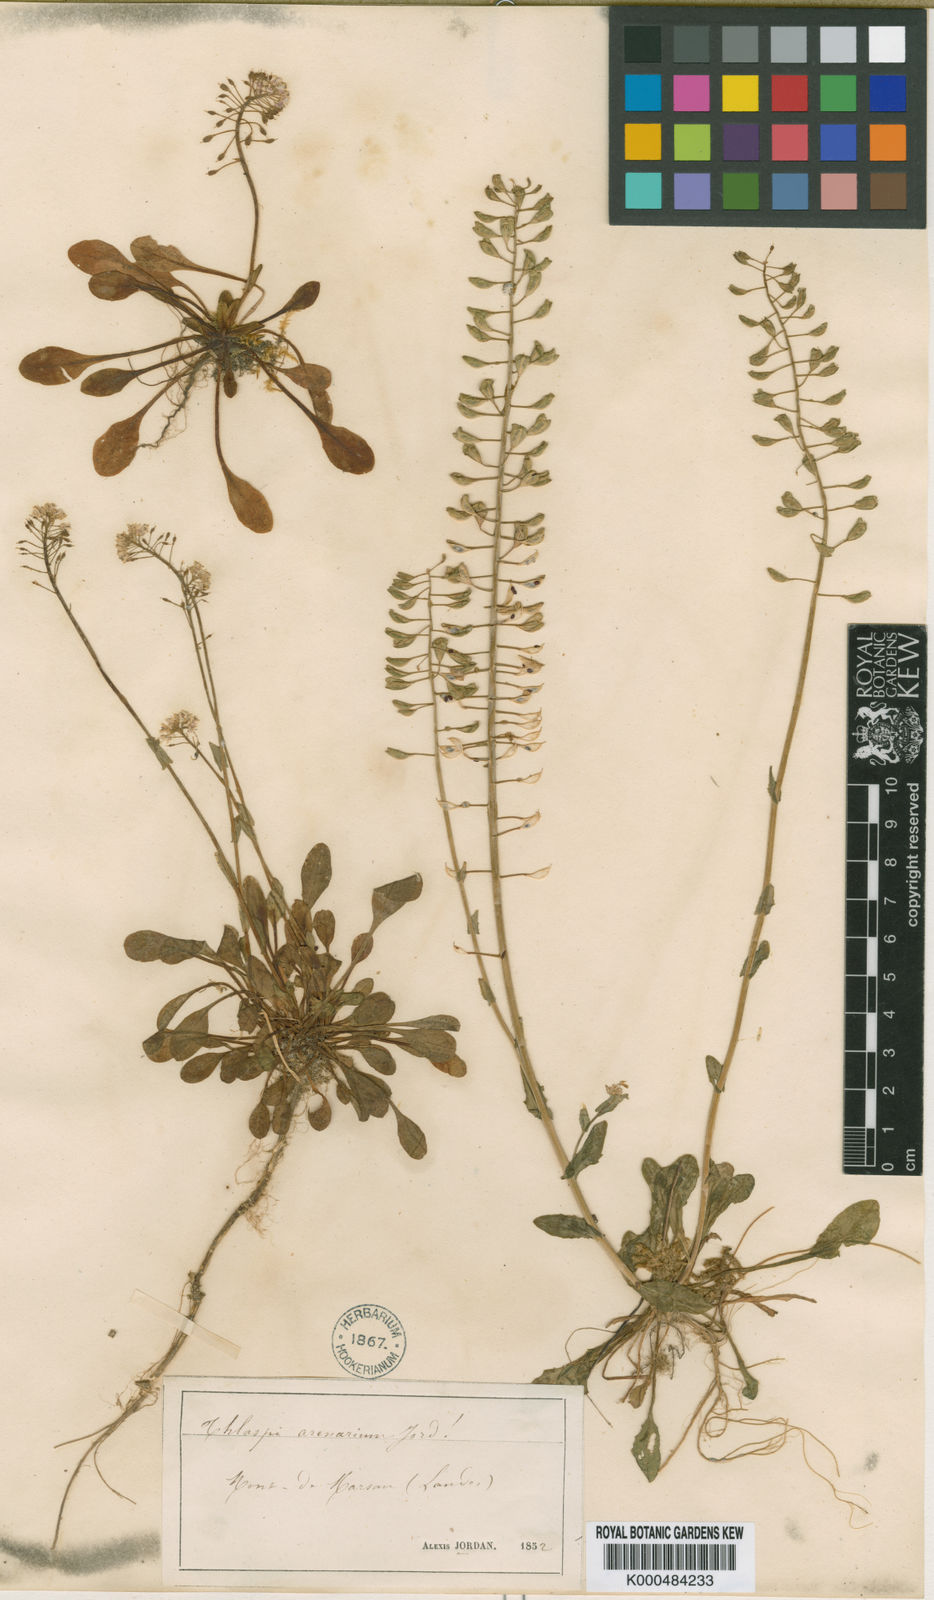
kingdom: Plantae
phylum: Tracheophyta
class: Magnoliopsida
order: Brassicales
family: Brassicaceae
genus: Noccaea
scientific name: Noccaea alpestris
